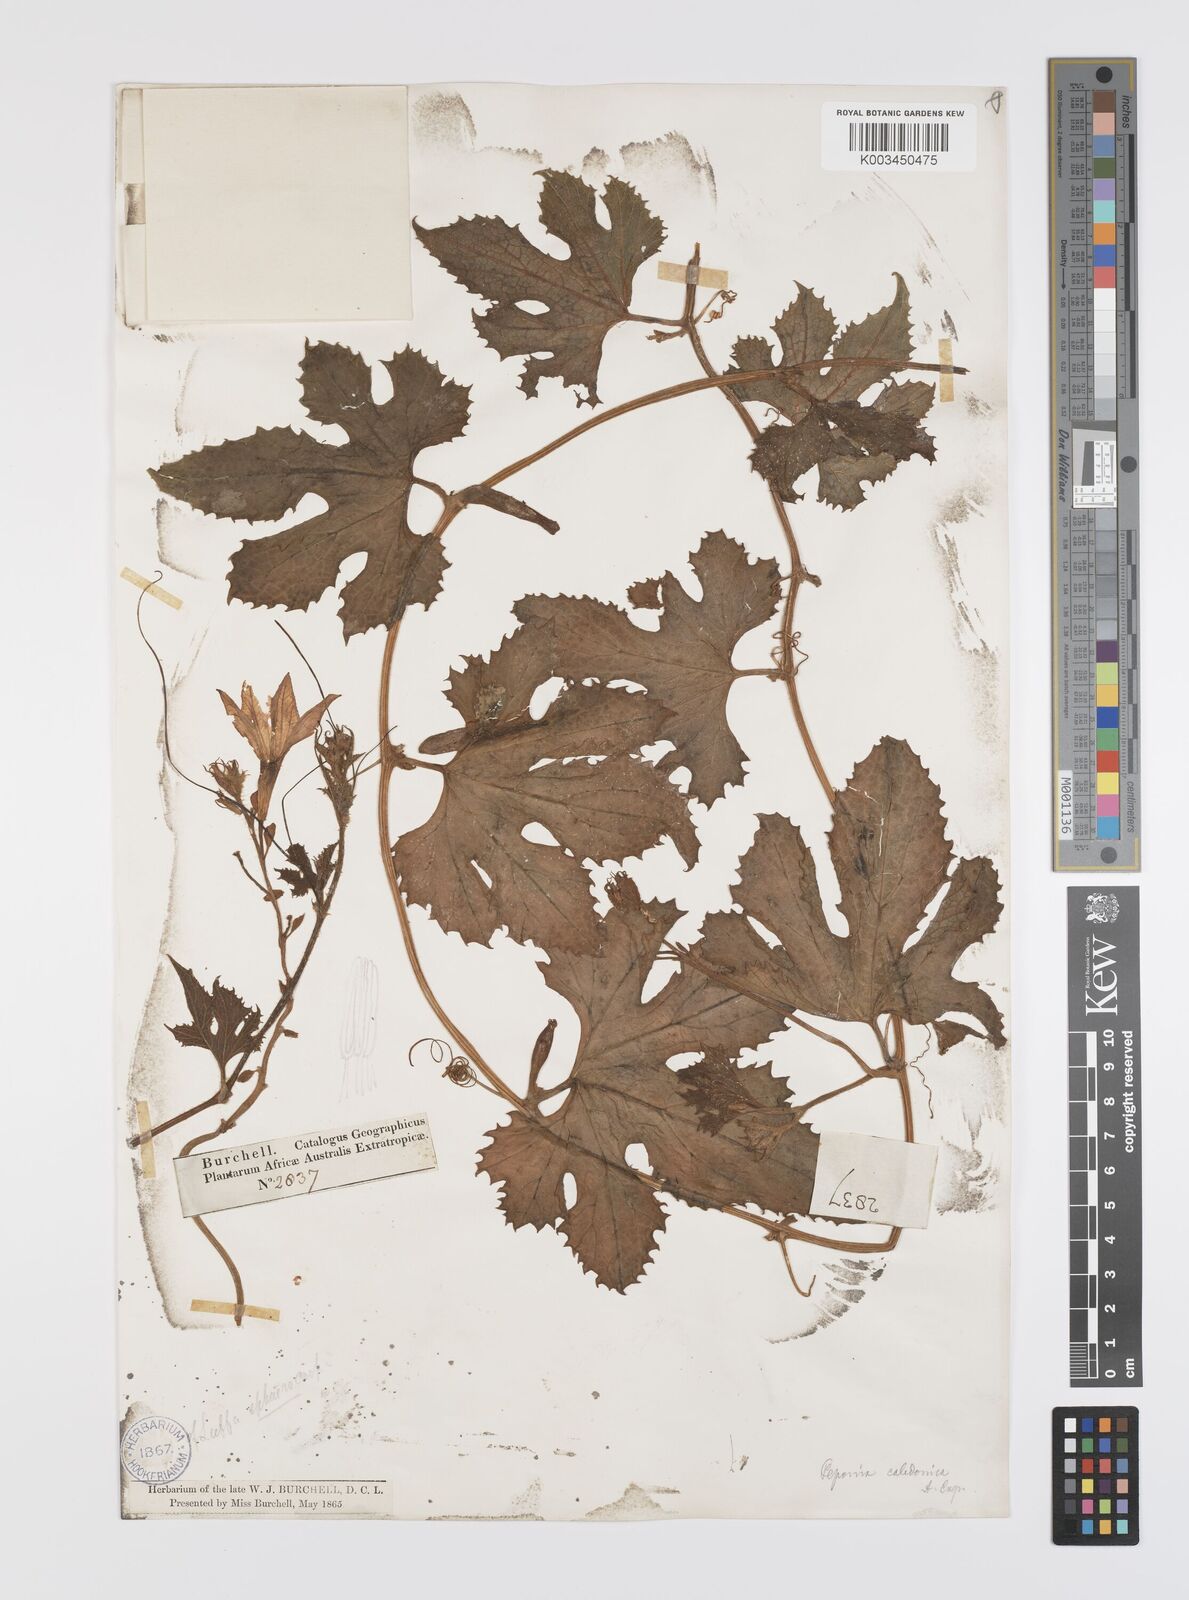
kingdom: Plantae
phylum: Tracheophyta
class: Magnoliopsida
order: Cucurbitales
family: Cucurbitaceae
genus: Peponium
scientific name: Peponium caledonicum
